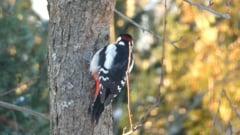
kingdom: Animalia
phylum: Chordata
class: Aves
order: Piciformes
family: Picidae
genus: Dendrocopos
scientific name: Dendrocopos major
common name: Great spotted woodpecker
